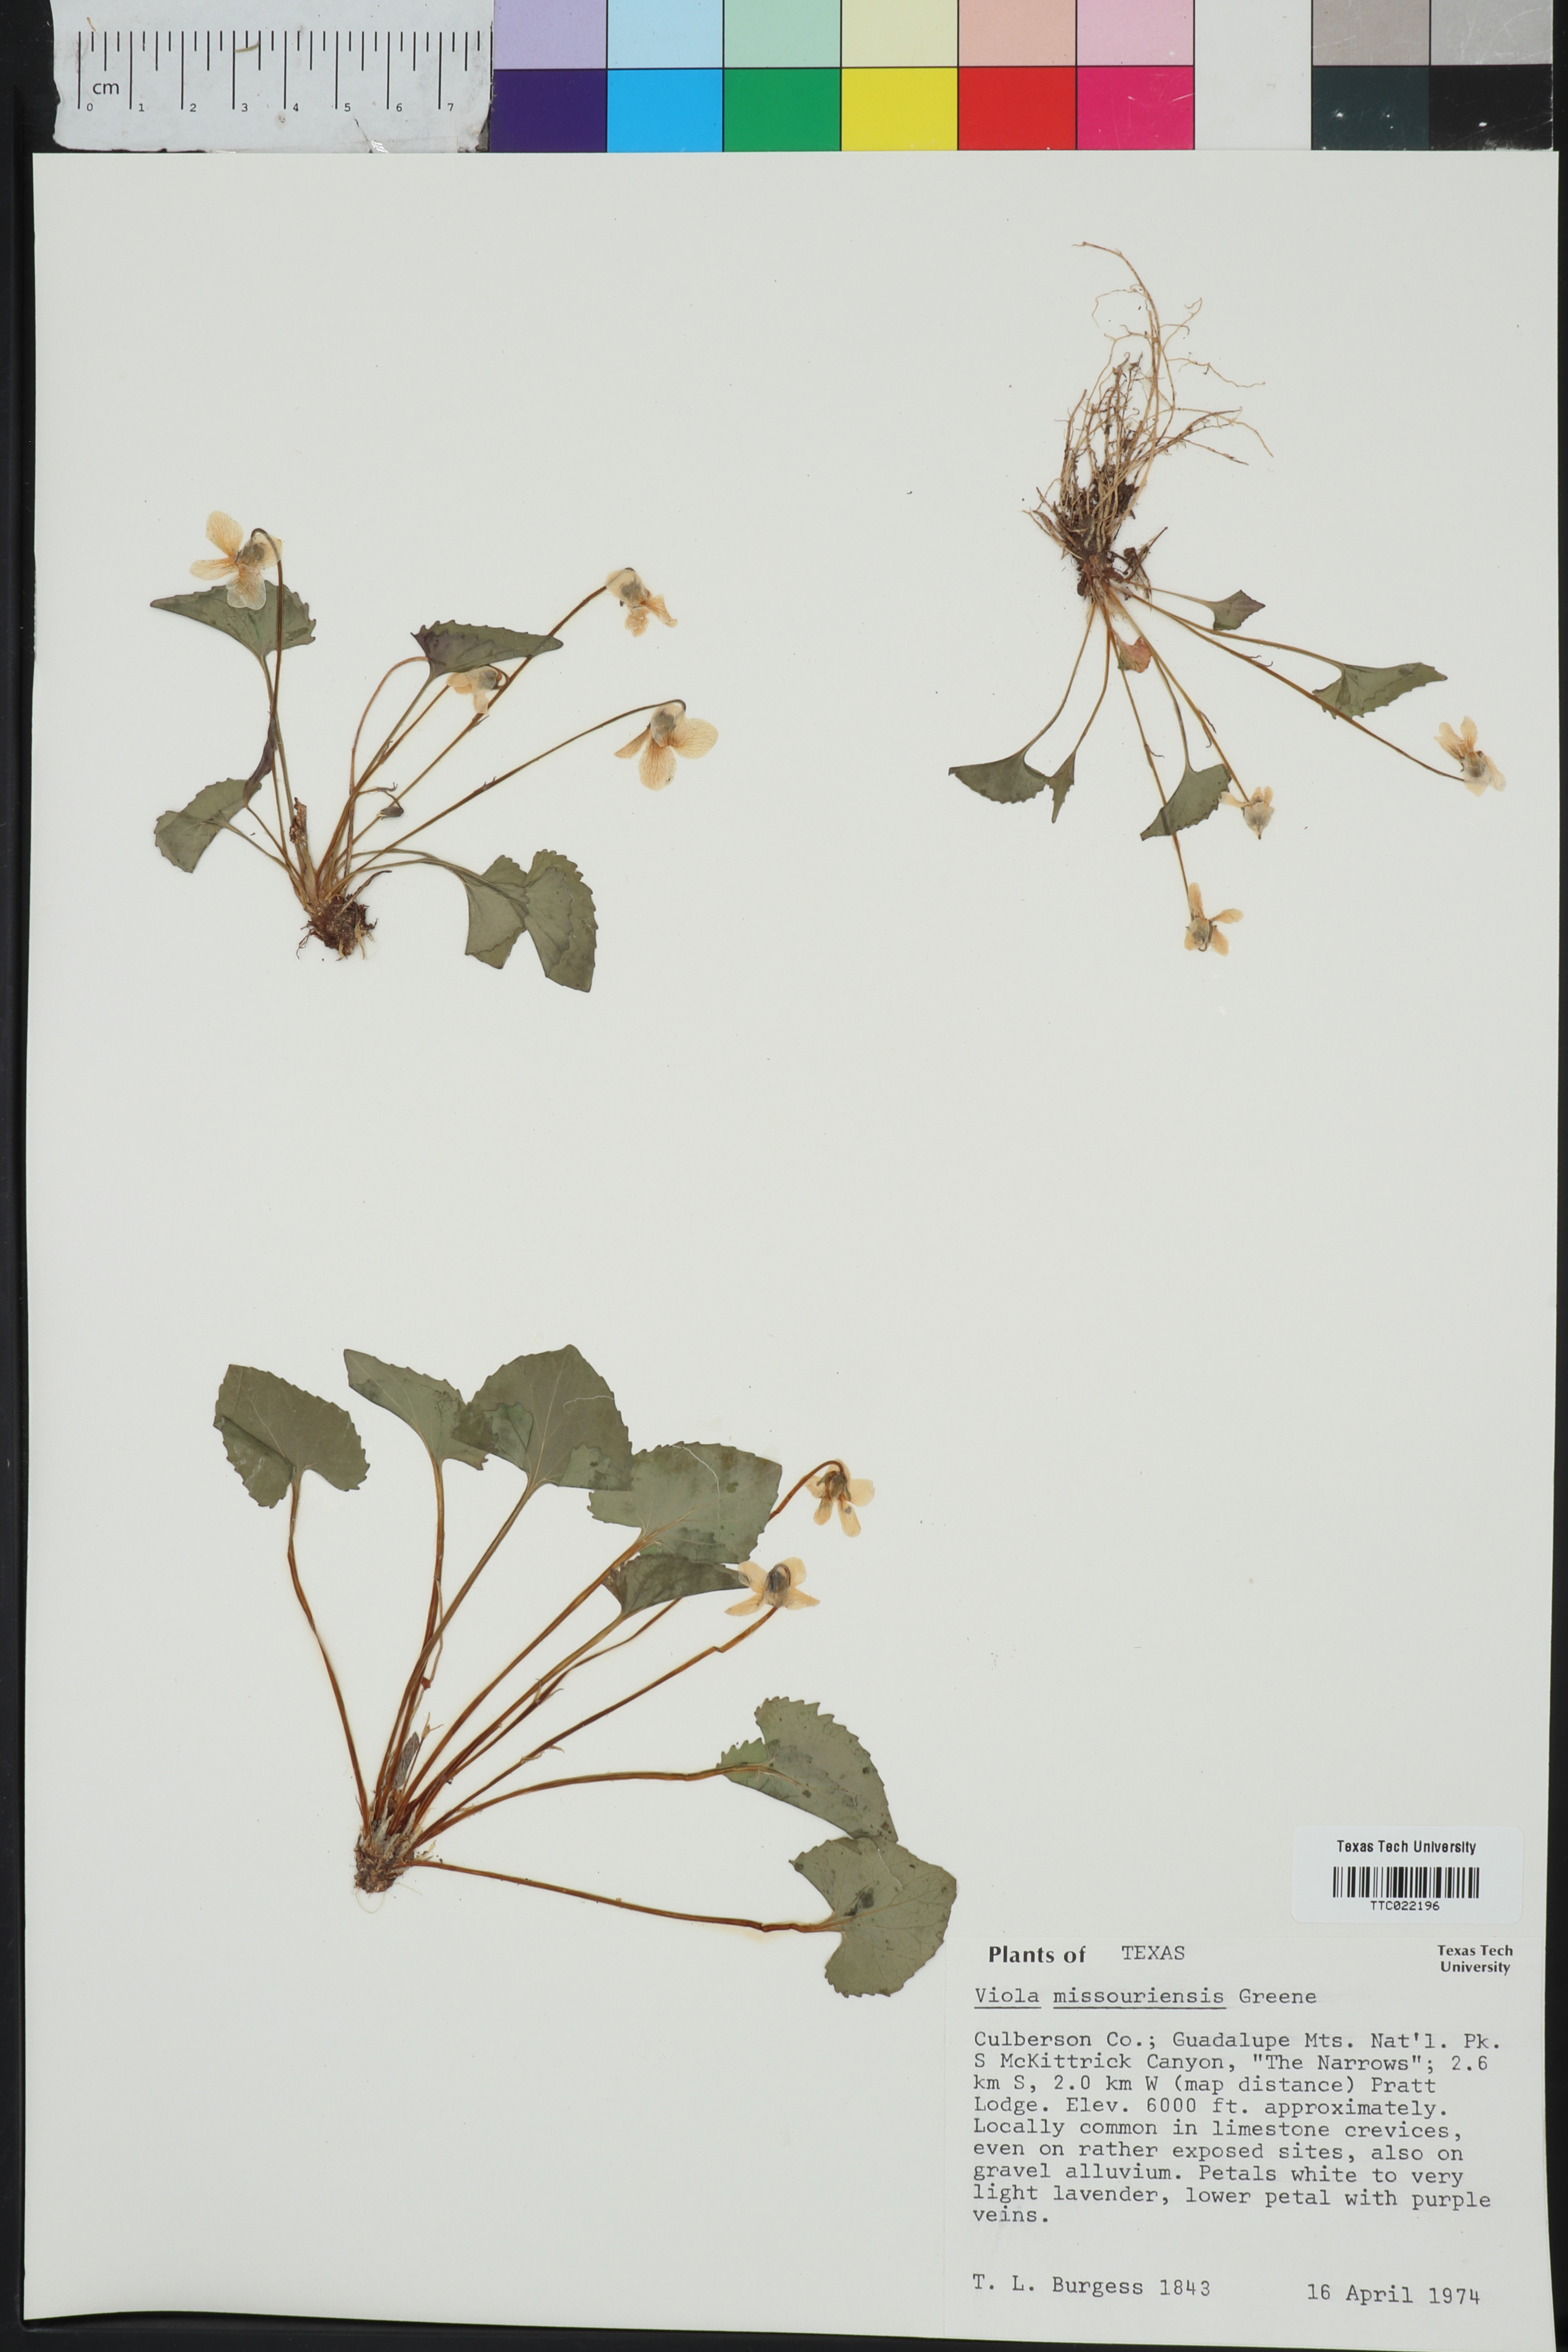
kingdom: Plantae
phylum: Tracheophyta
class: Magnoliopsida
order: Malpighiales
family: Violaceae
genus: Viola
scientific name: Viola missouriensis
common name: Missouri violet
